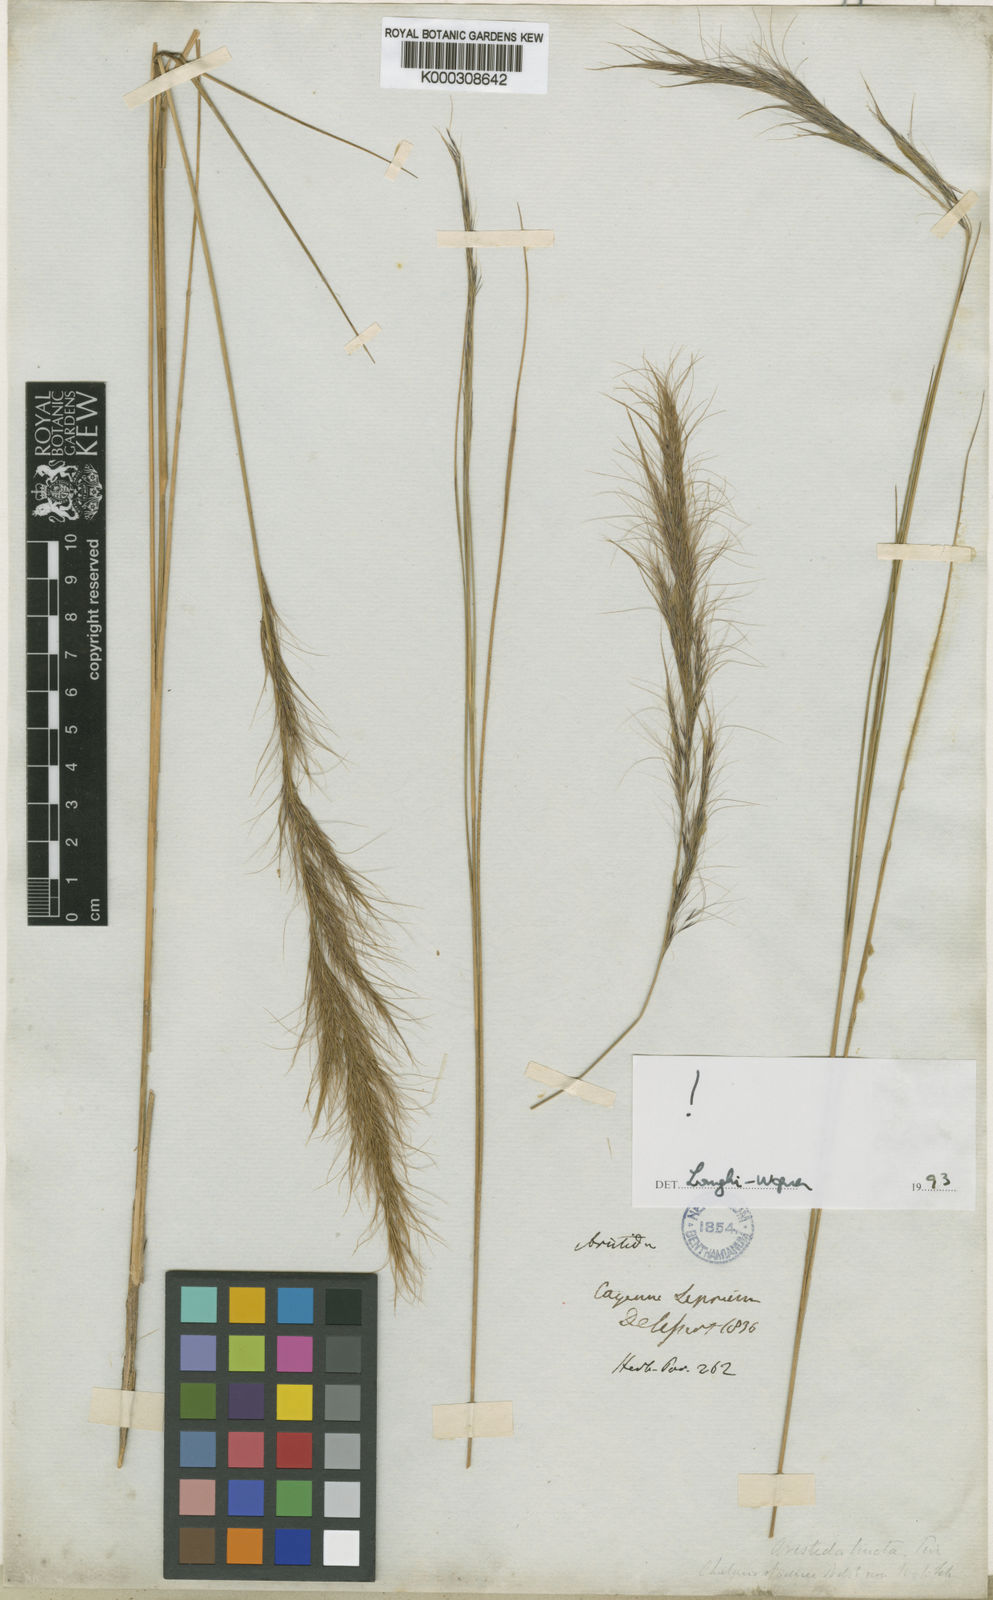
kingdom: Plantae
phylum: Tracheophyta
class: Liliopsida
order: Poales
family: Poaceae
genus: Aristida
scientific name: Aristida torta
